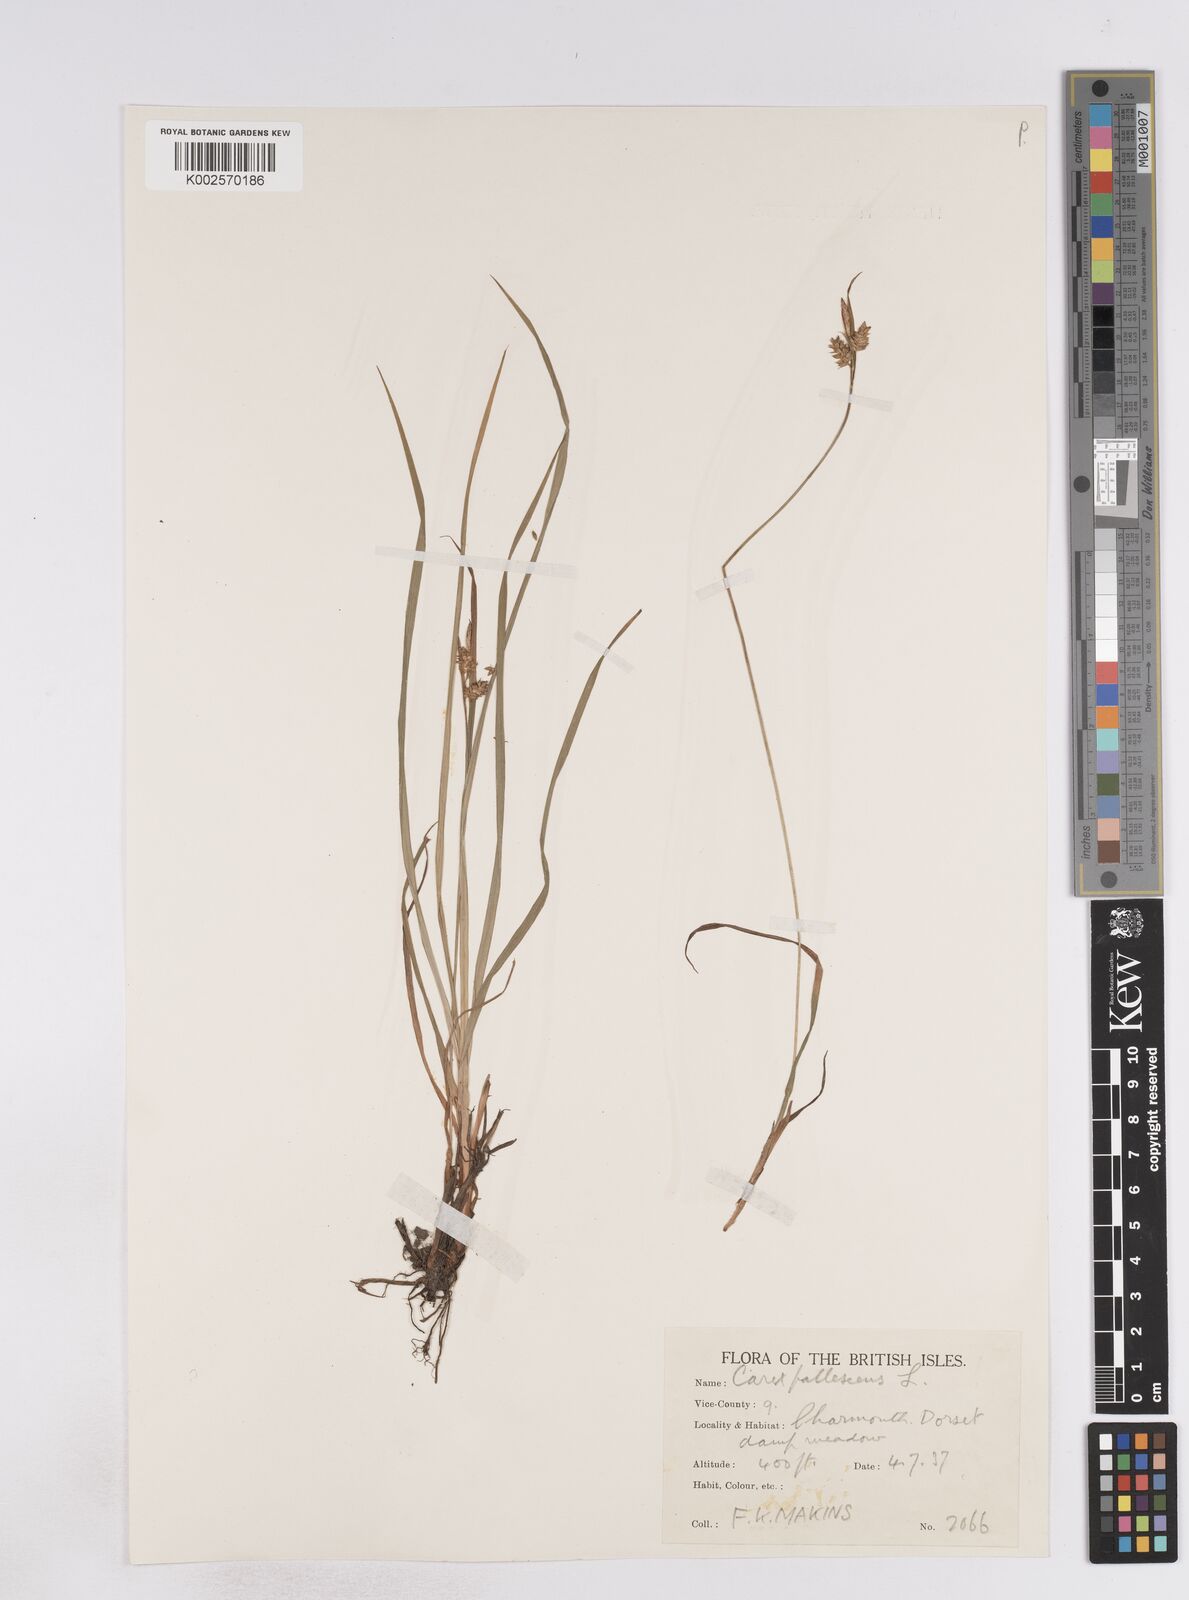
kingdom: Plantae
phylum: Tracheophyta
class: Liliopsida
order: Poales
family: Cyperaceae
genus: Carex
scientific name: Carex pallescens
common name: Pale sedge
